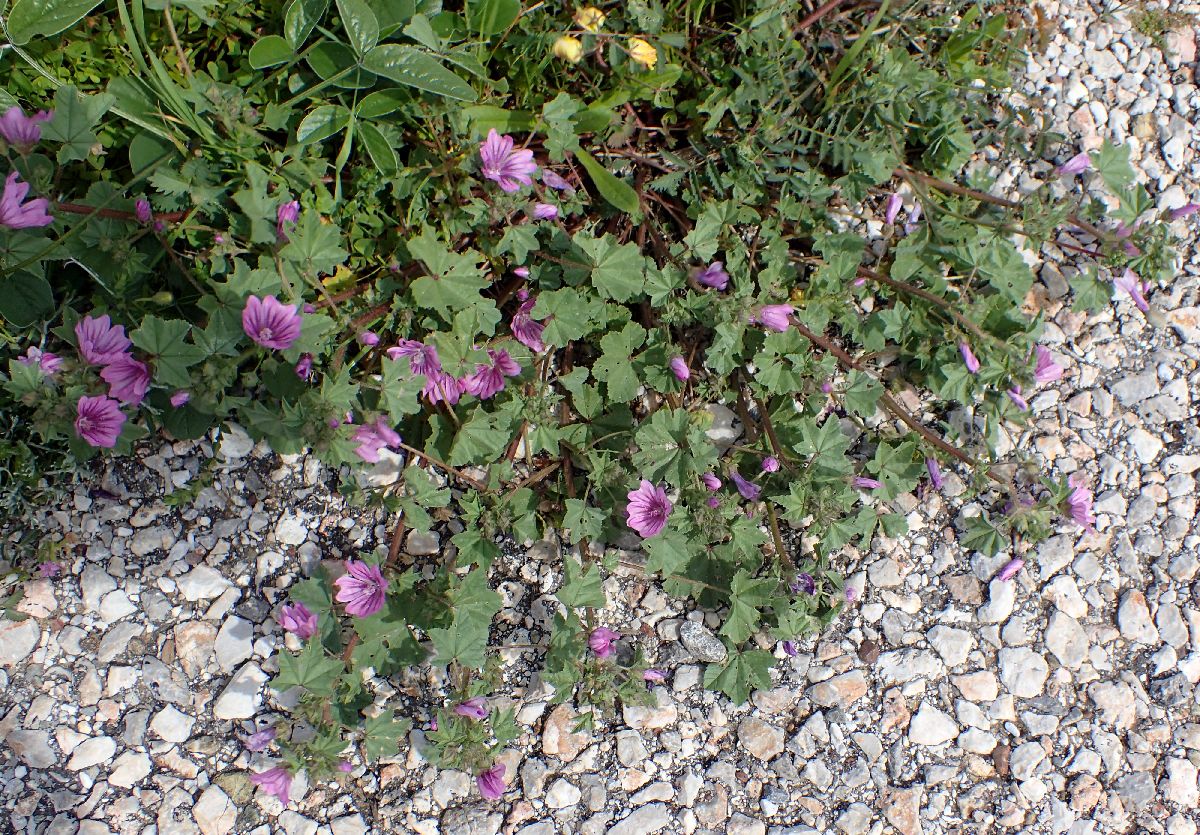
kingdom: Plantae
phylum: Tracheophyta
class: Magnoliopsida
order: Malvales
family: Malvaceae
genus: Malva
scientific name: Malva sylvestris
